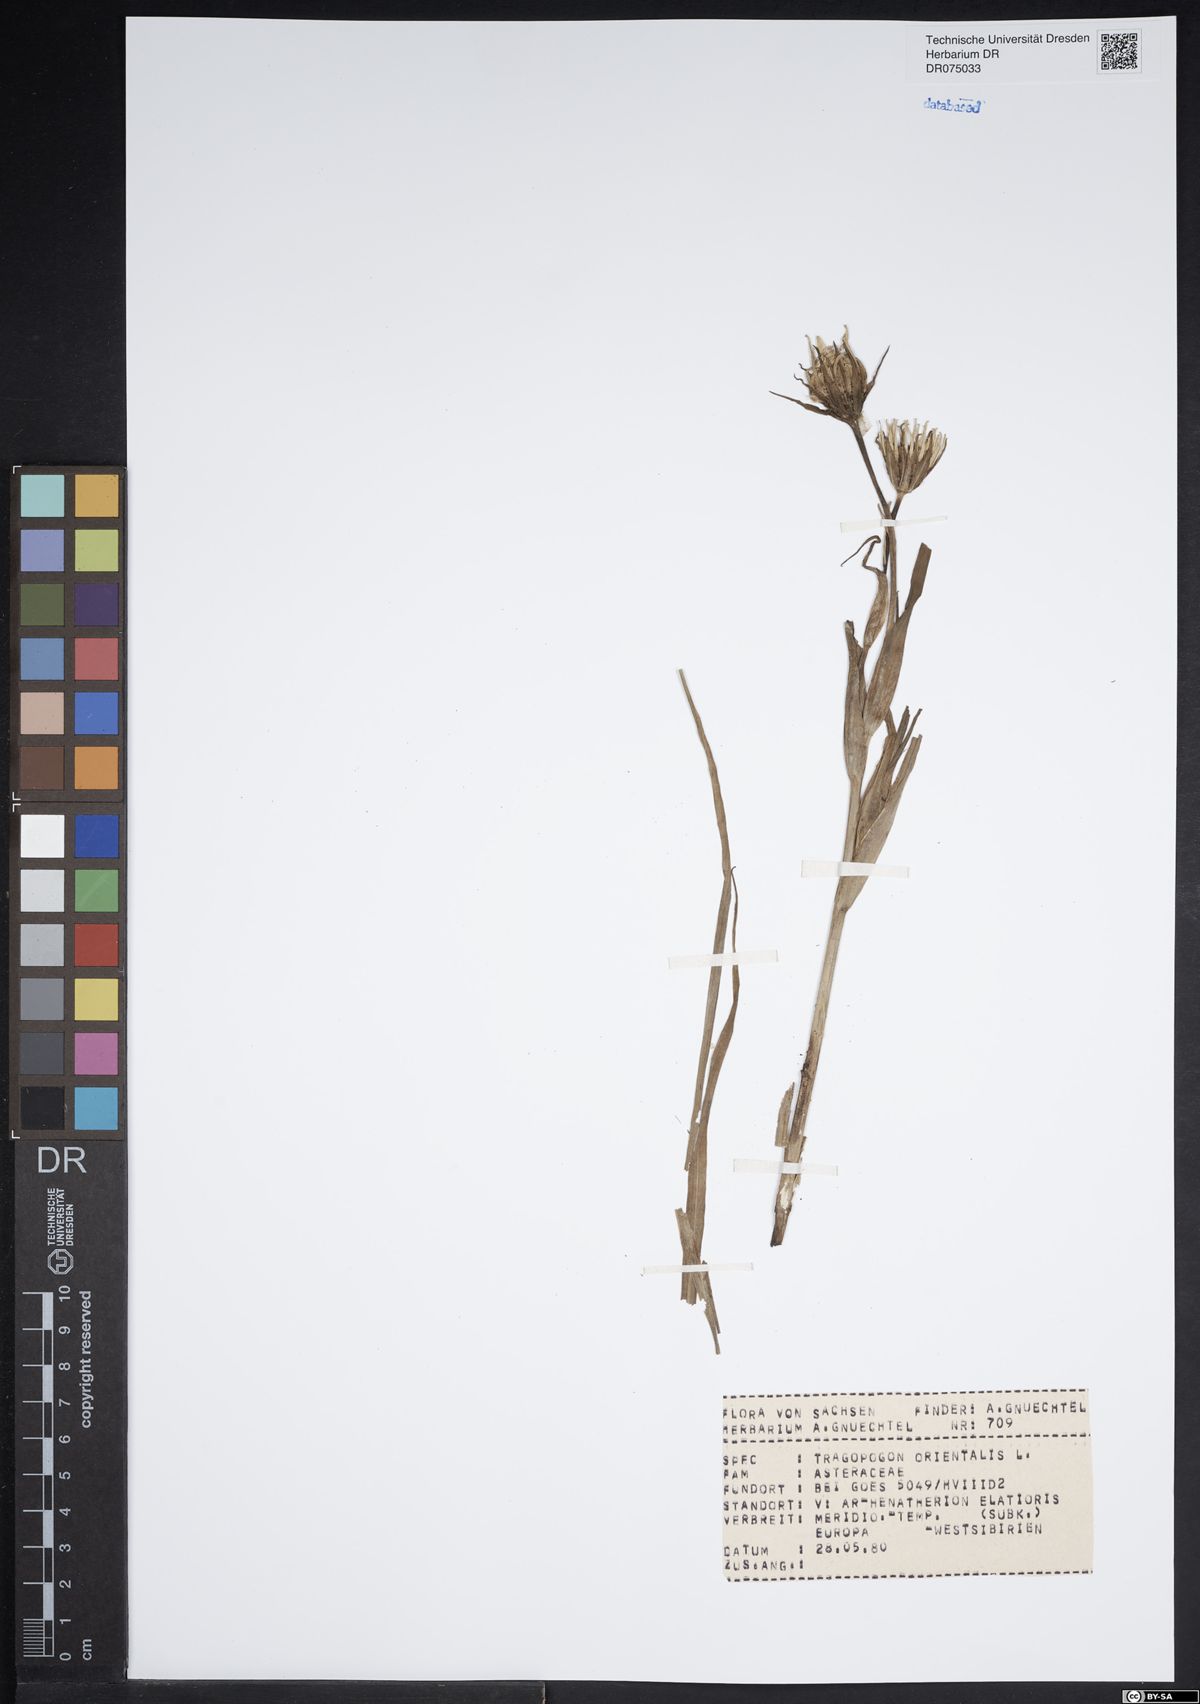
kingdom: Plantae
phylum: Tracheophyta
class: Magnoliopsida
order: Asterales
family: Asteraceae
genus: Tragopogon
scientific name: Tragopogon orientalis
